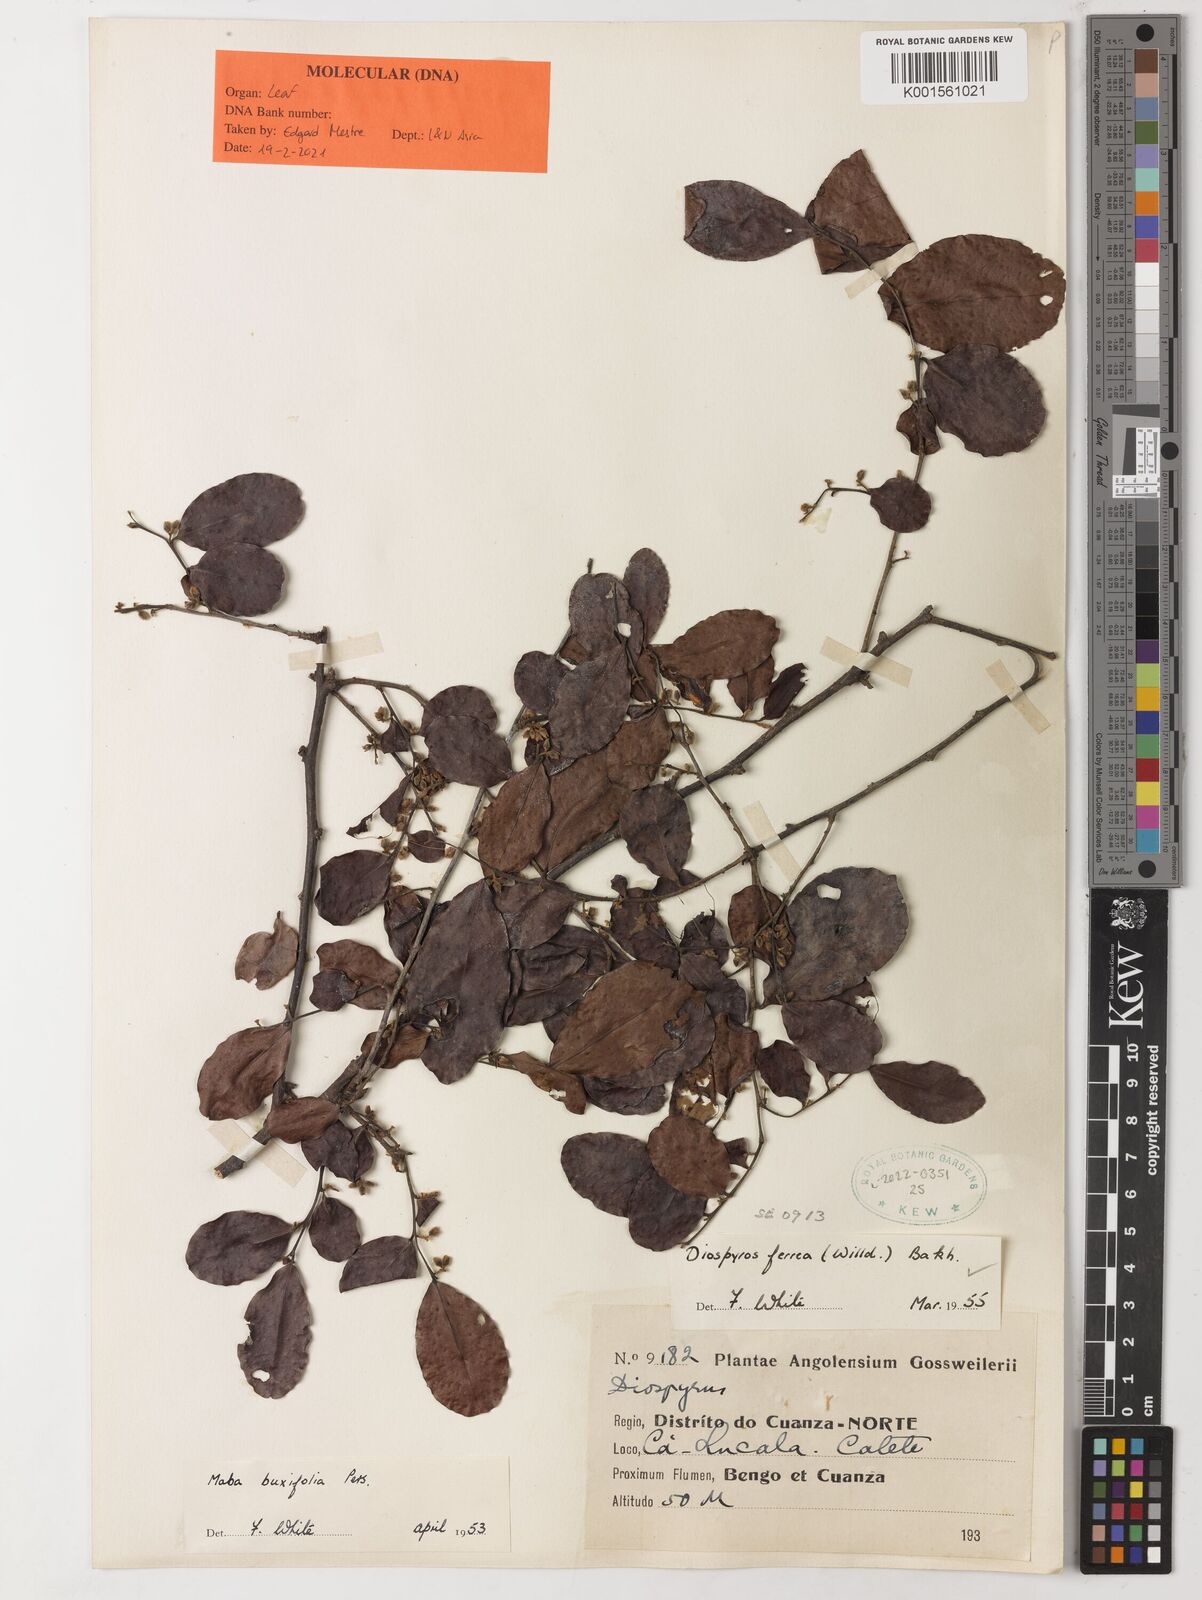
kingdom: Plantae
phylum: Tracheophyta
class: Magnoliopsida
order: Ericales
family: Ebenaceae
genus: Diospyros
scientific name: Diospyros ferrea
